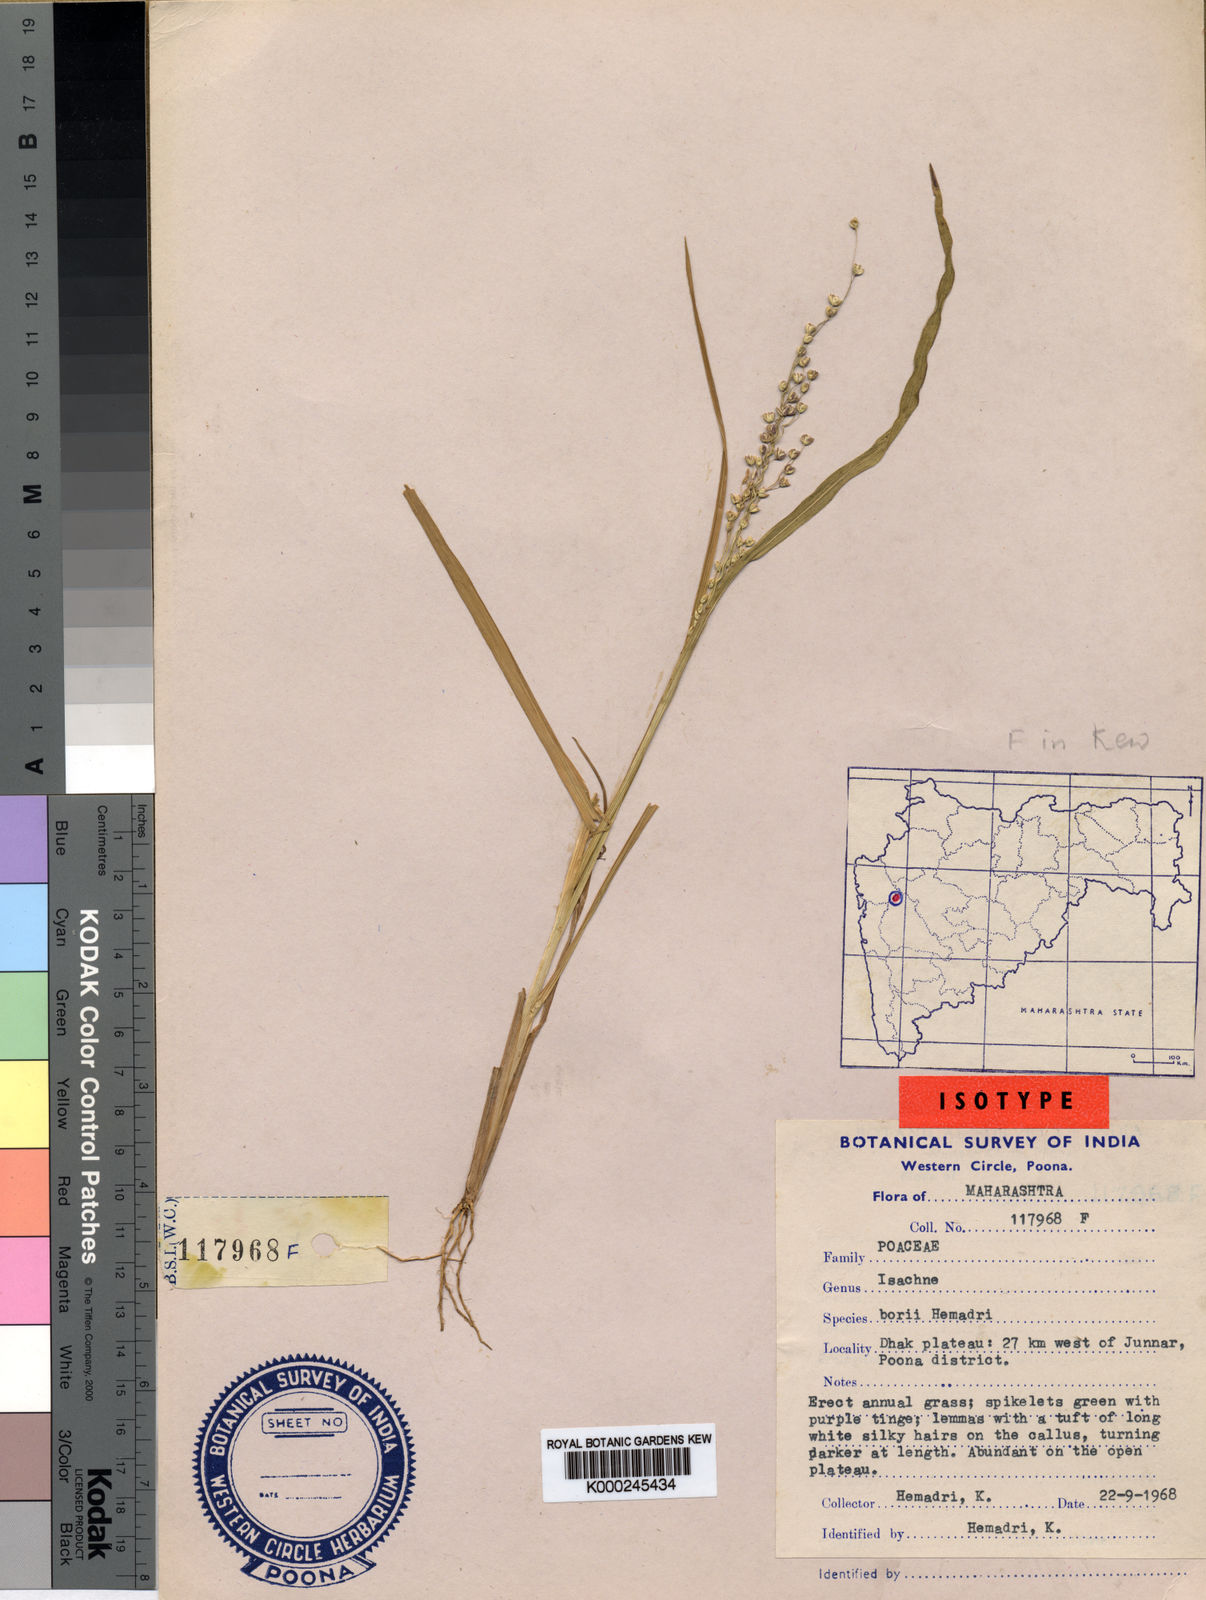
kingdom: Plantae
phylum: Tracheophyta
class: Liliopsida
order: Poales
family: Poaceae
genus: Isachne
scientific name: Isachne borii
